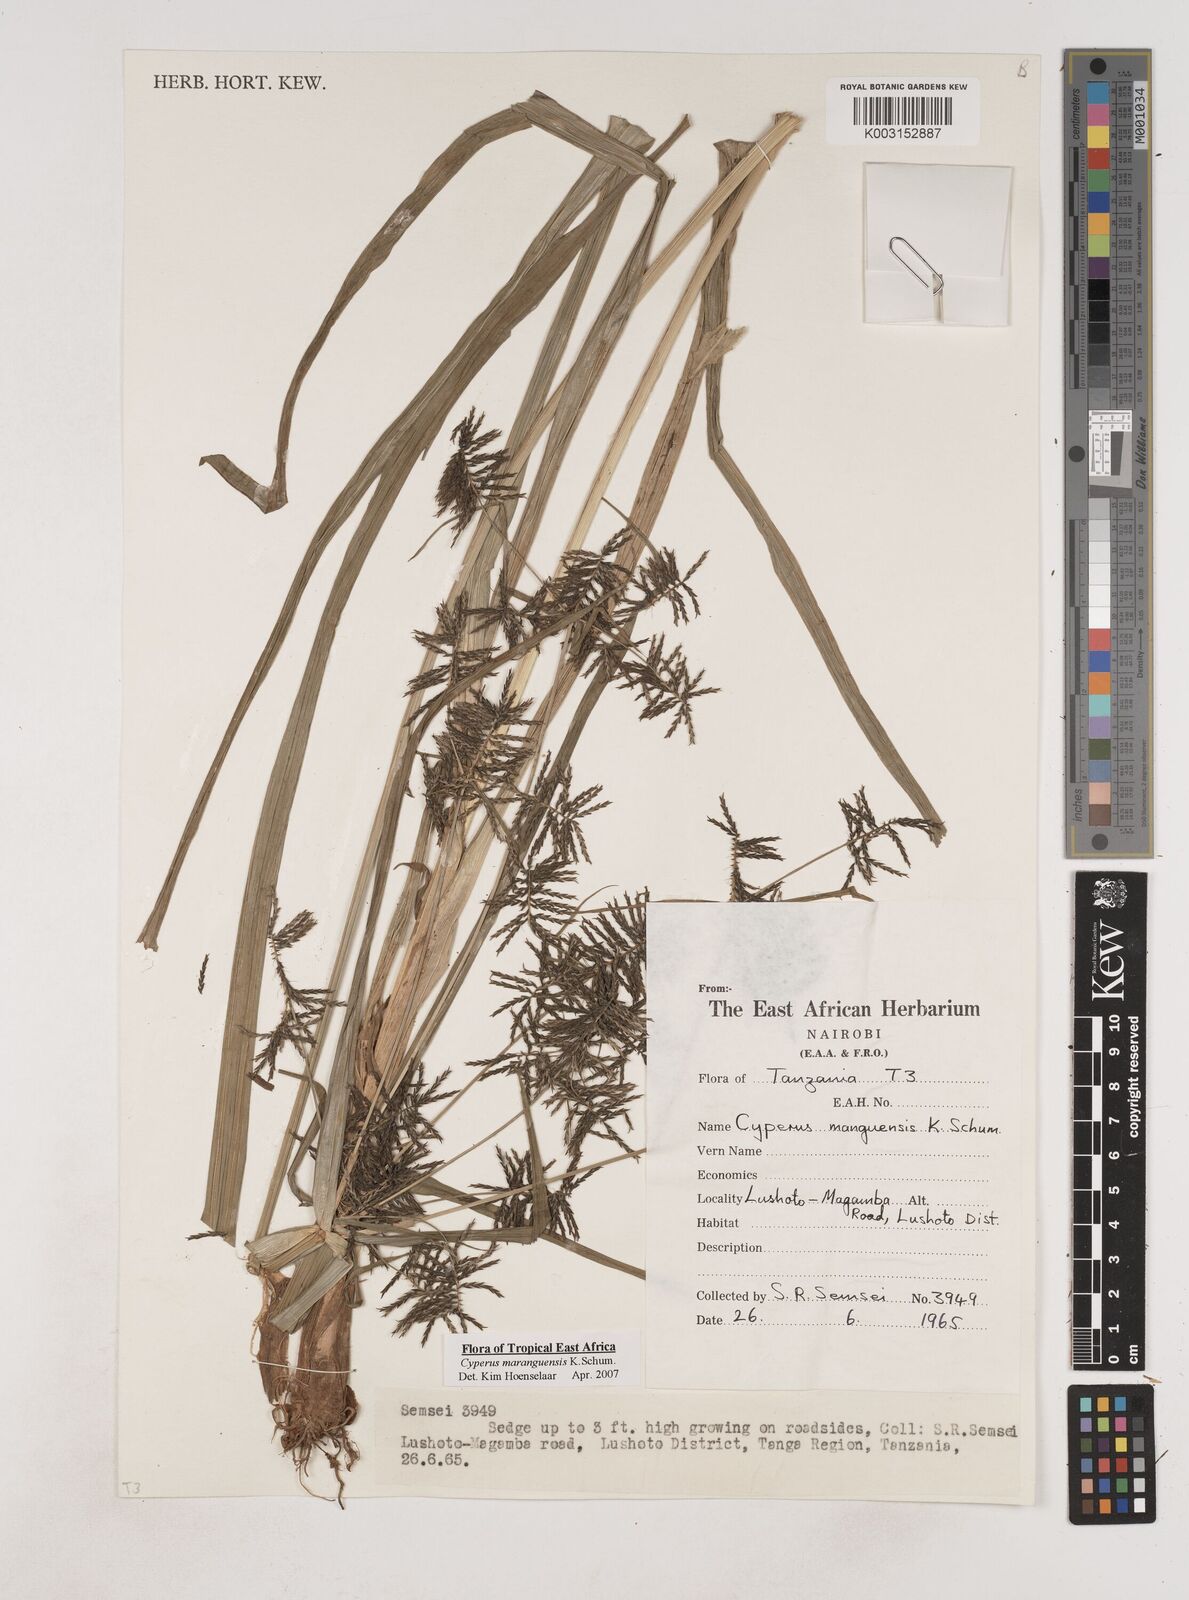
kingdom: Plantae
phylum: Tracheophyta
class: Liliopsida
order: Poales
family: Cyperaceae
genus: Cyperus
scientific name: Cyperus maranguensis
